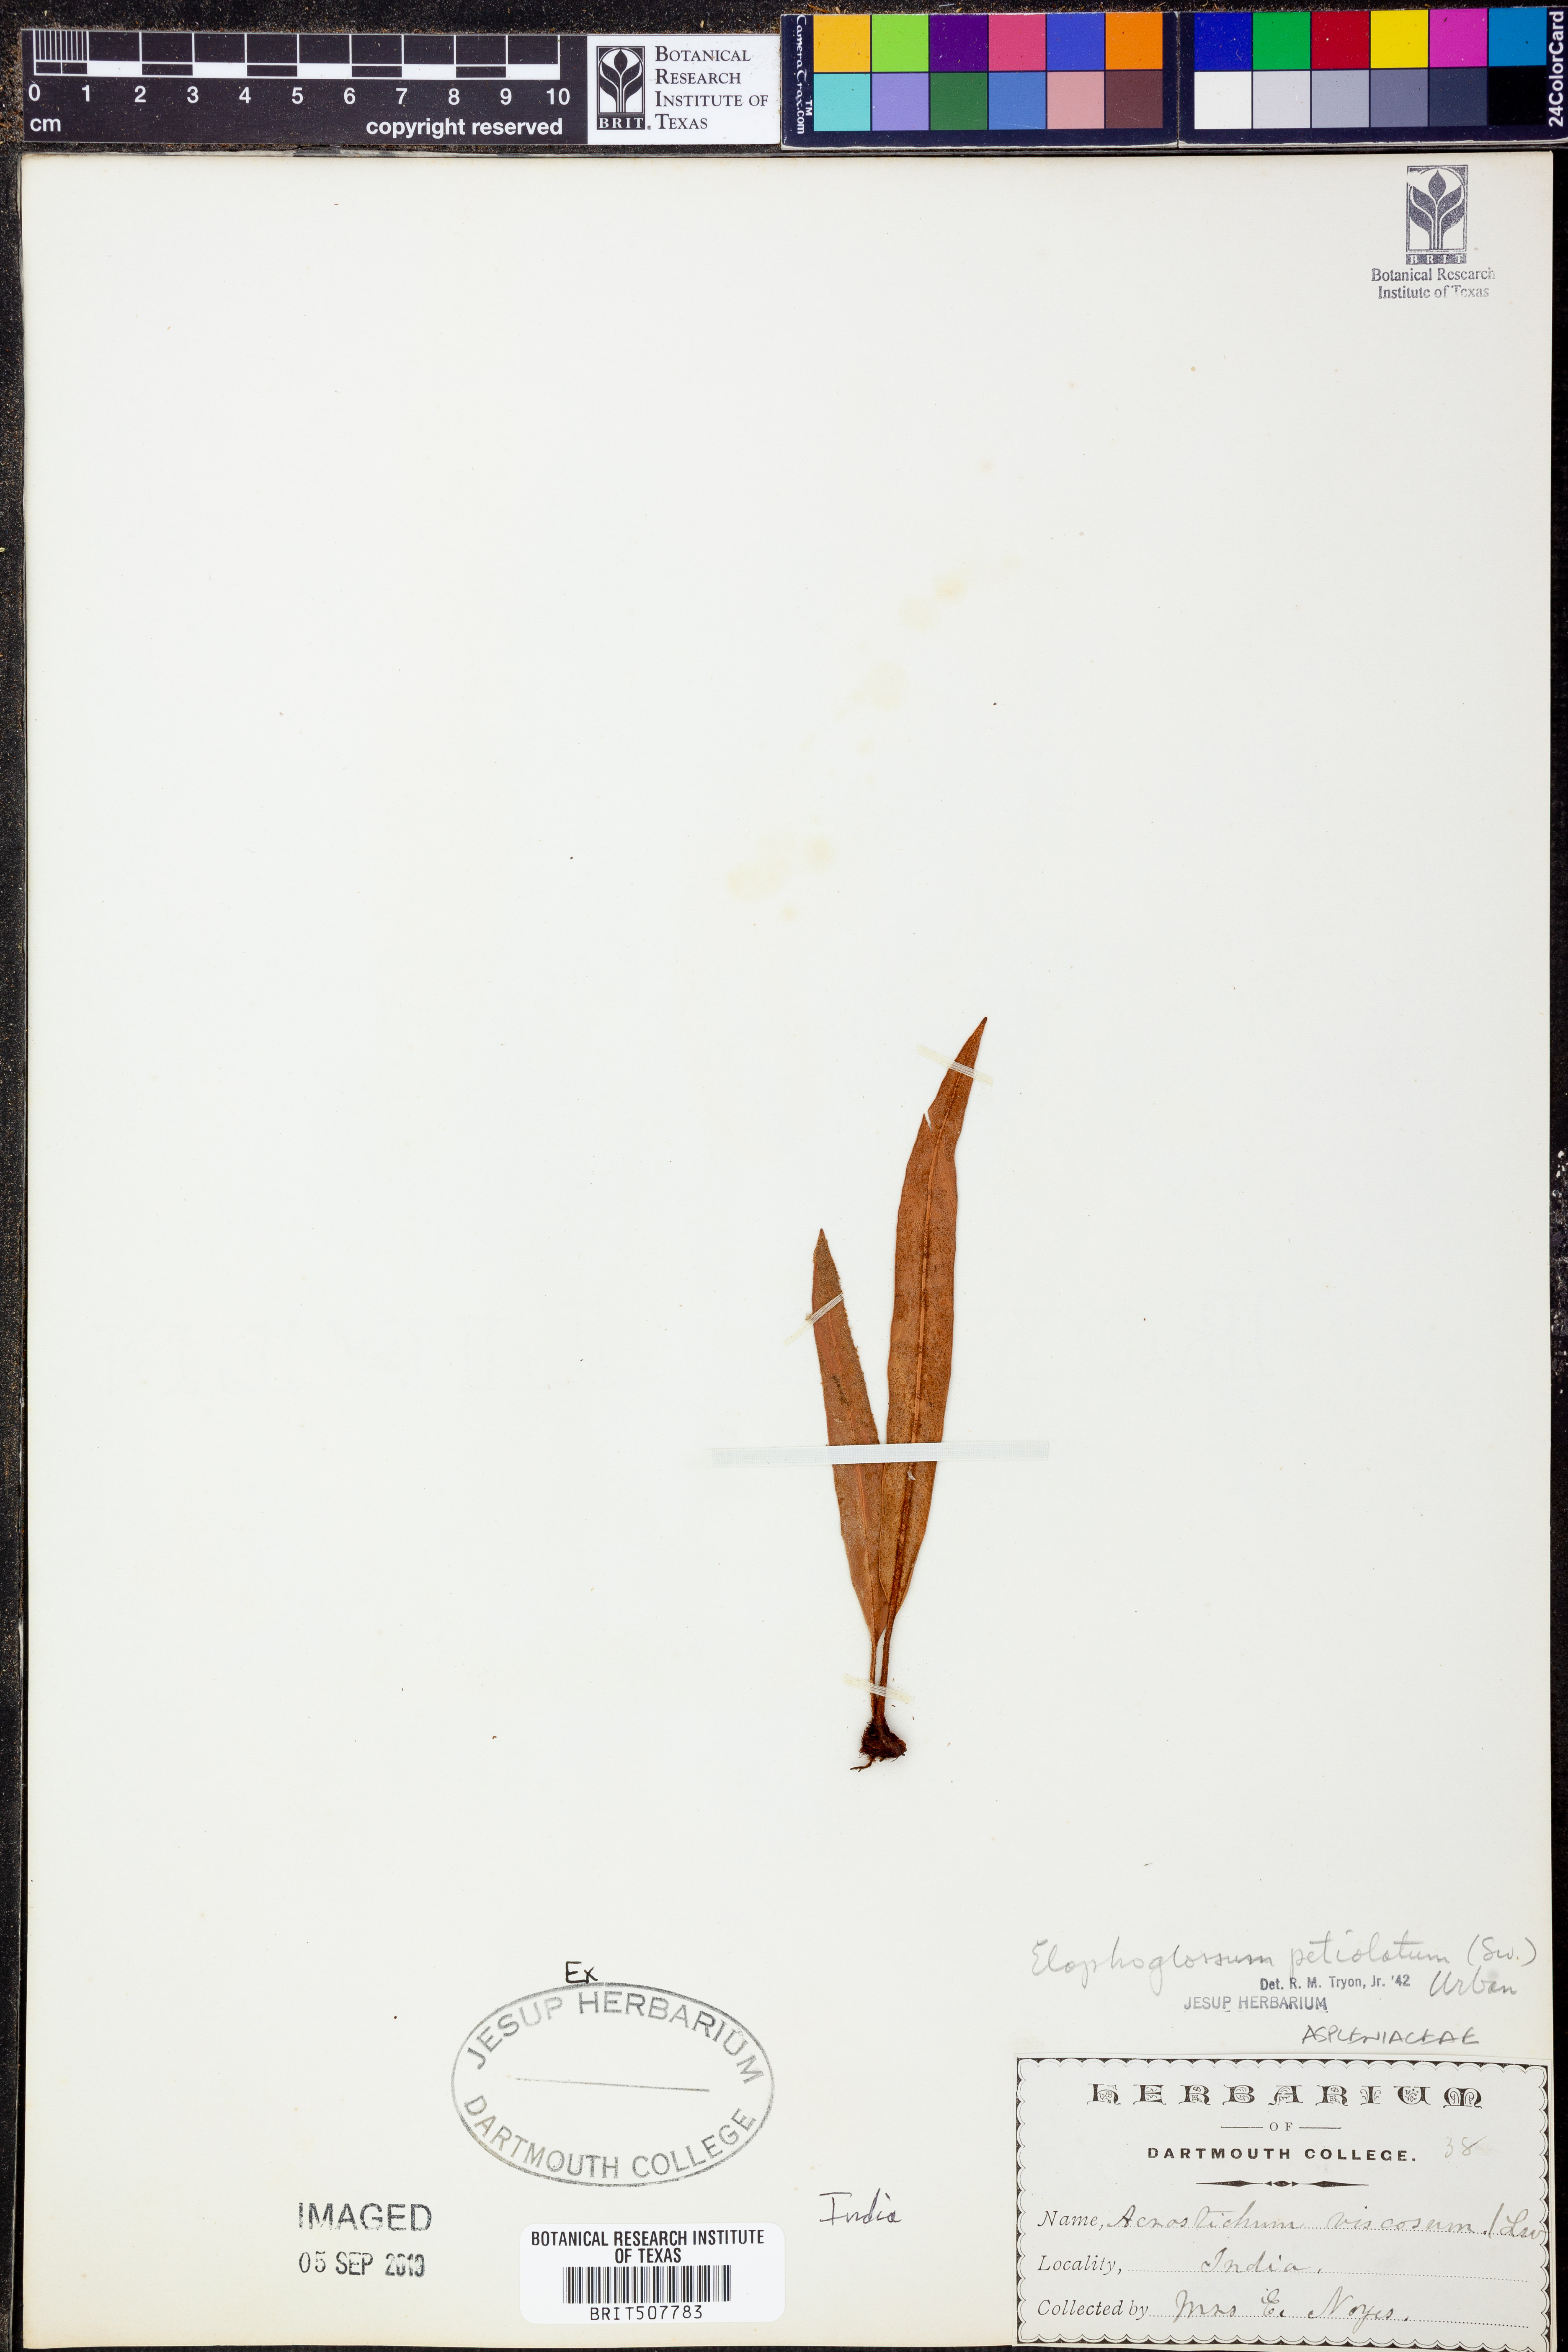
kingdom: Plantae
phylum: Tracheophyta
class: Polypodiopsida
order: Polypodiales
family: Dryopteridaceae
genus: Elaphoglossum
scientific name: Elaphoglossum petiolatum
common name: Graceful tonguefern
